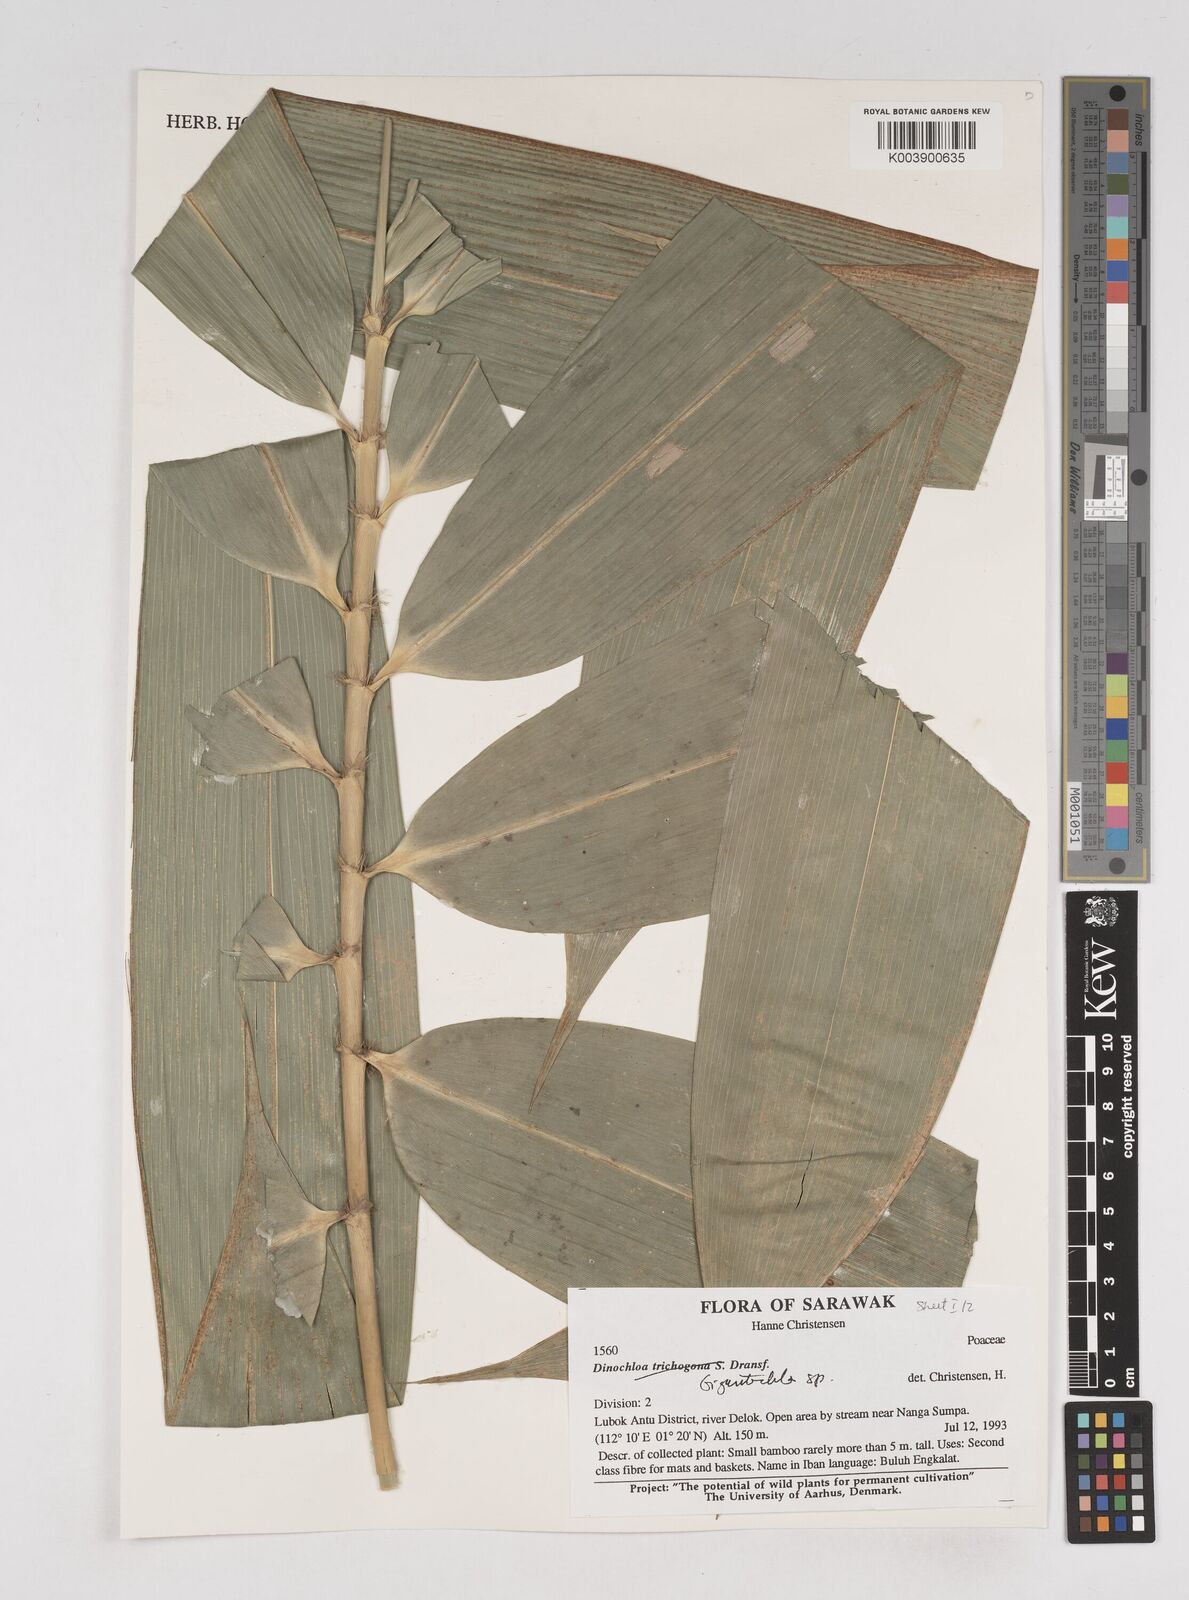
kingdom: Plantae
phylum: Tracheophyta
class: Liliopsida
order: Poales
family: Poaceae
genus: Gigantochloa
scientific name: Gigantochloa
